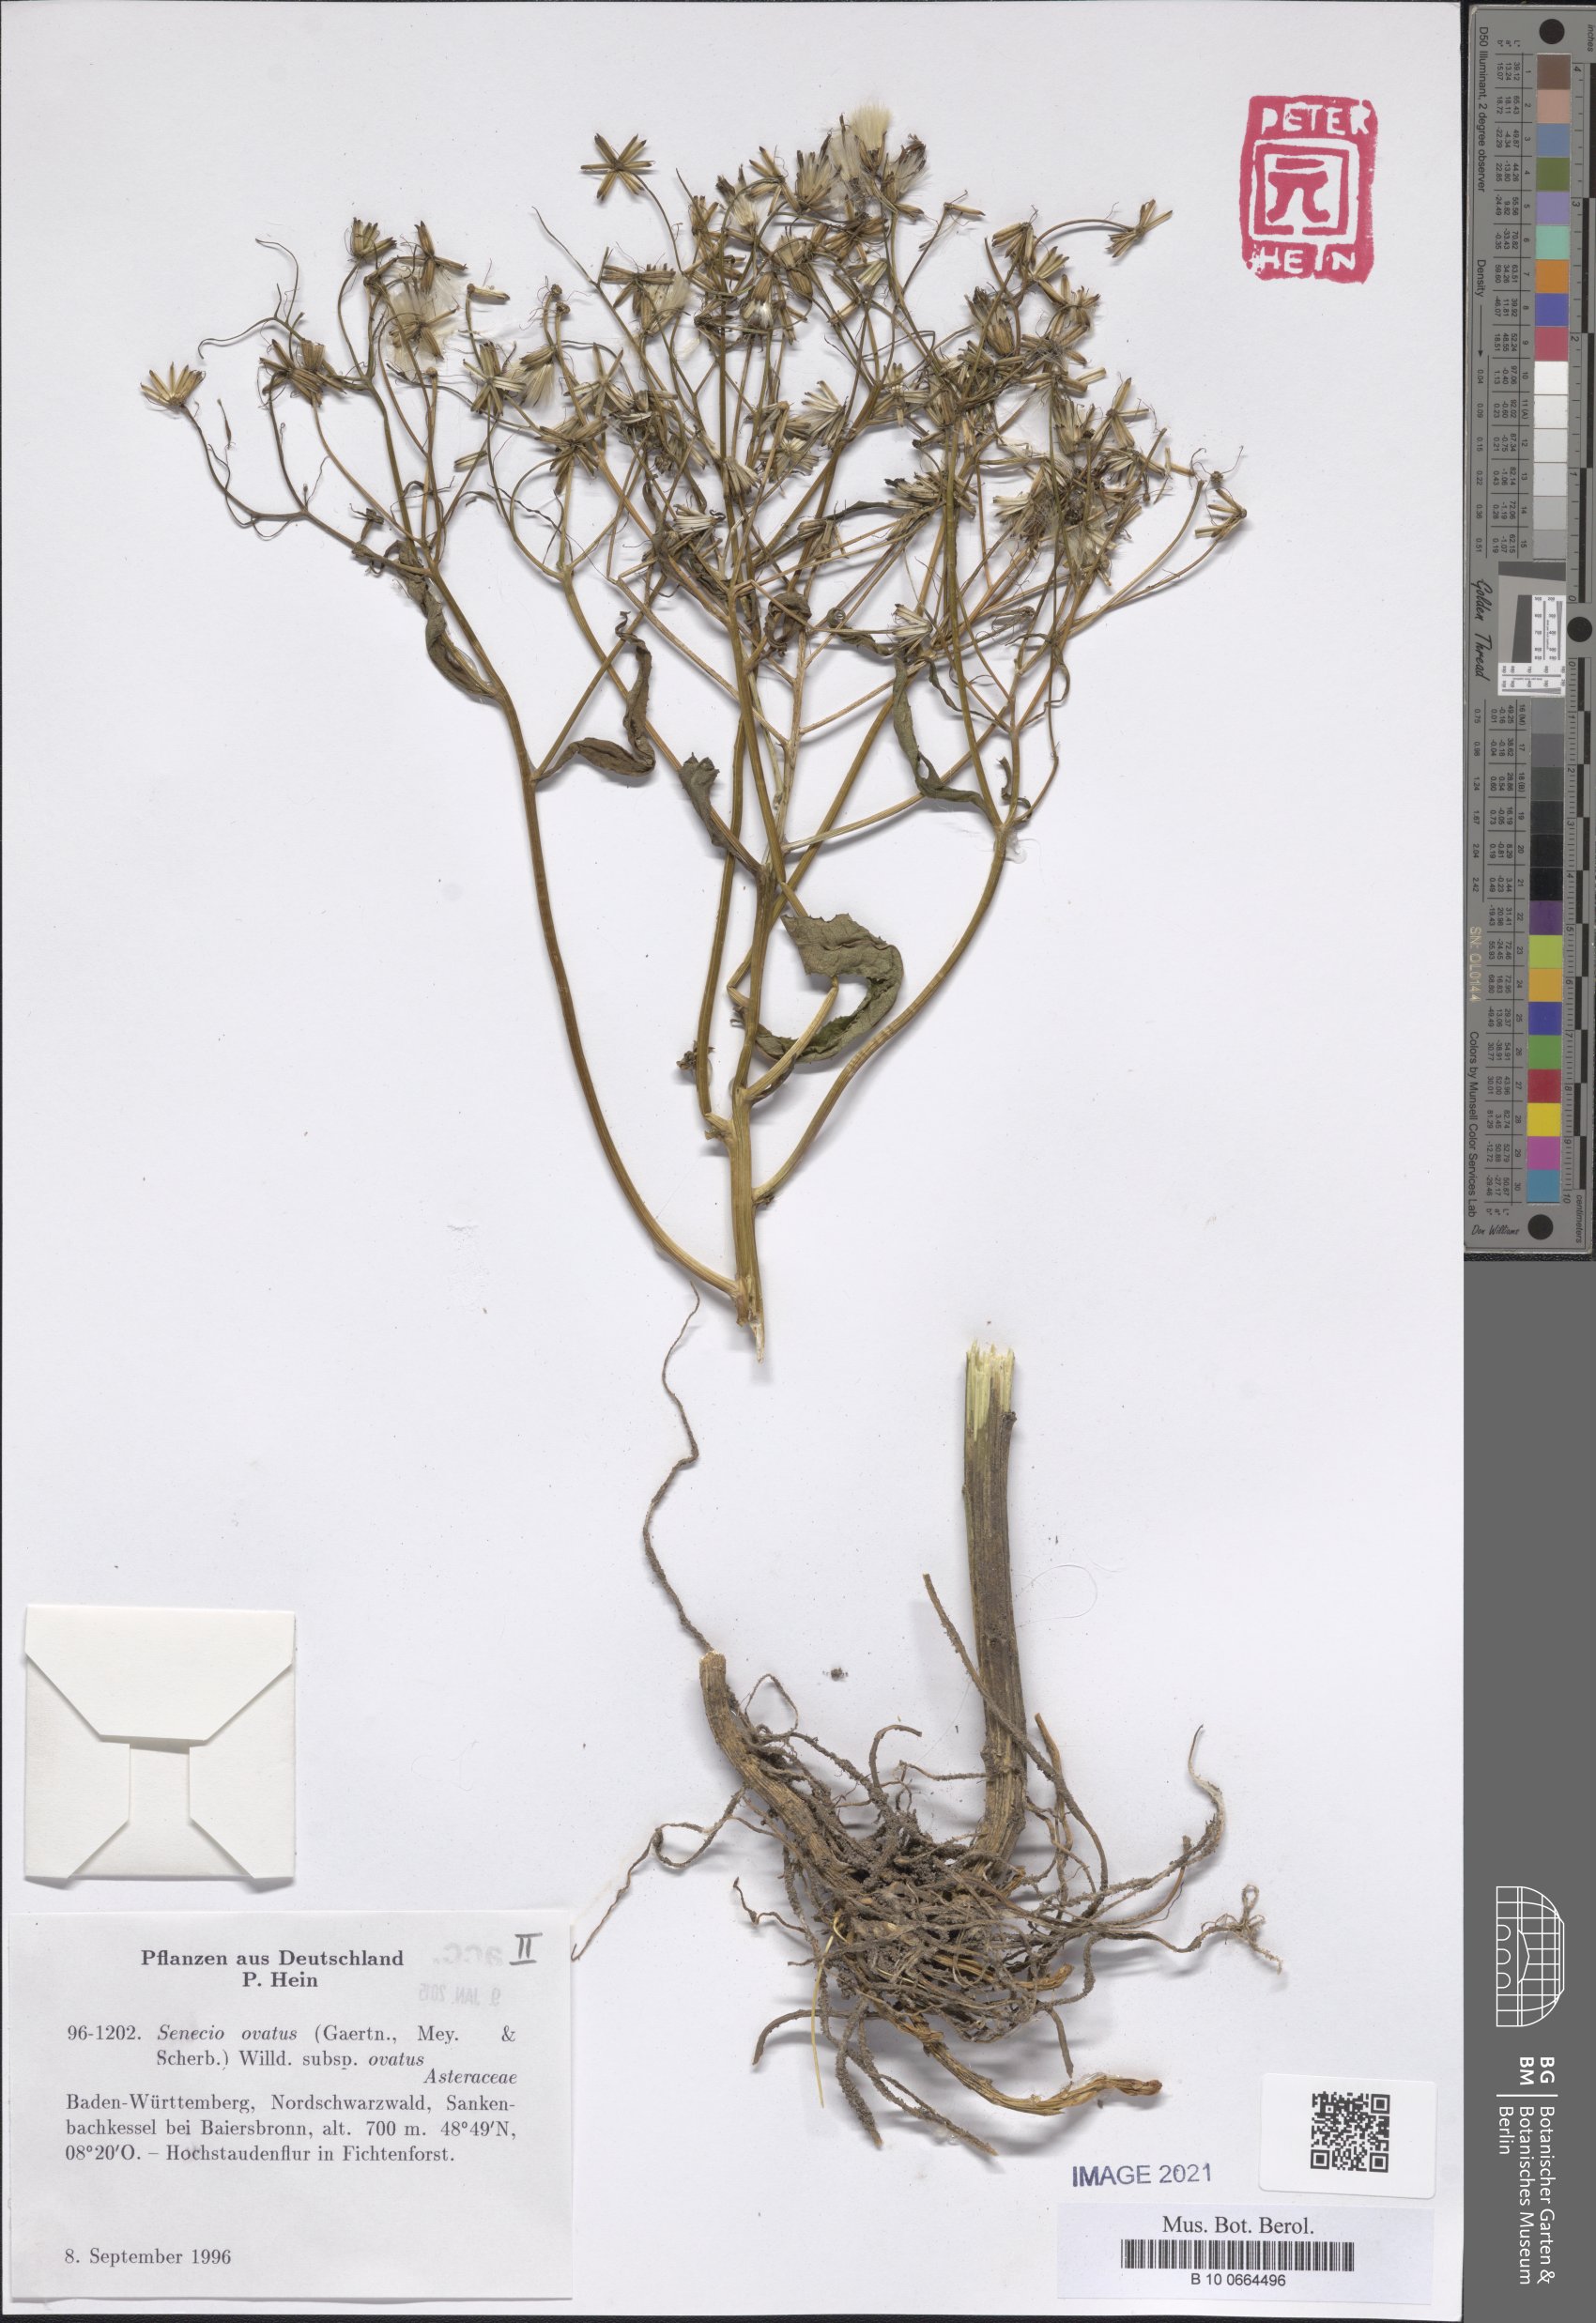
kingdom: Plantae
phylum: Tracheophyta
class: Magnoliopsida
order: Asterales
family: Asteraceae
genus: Senecio
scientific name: Senecio ovatus
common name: Wood ragwort
